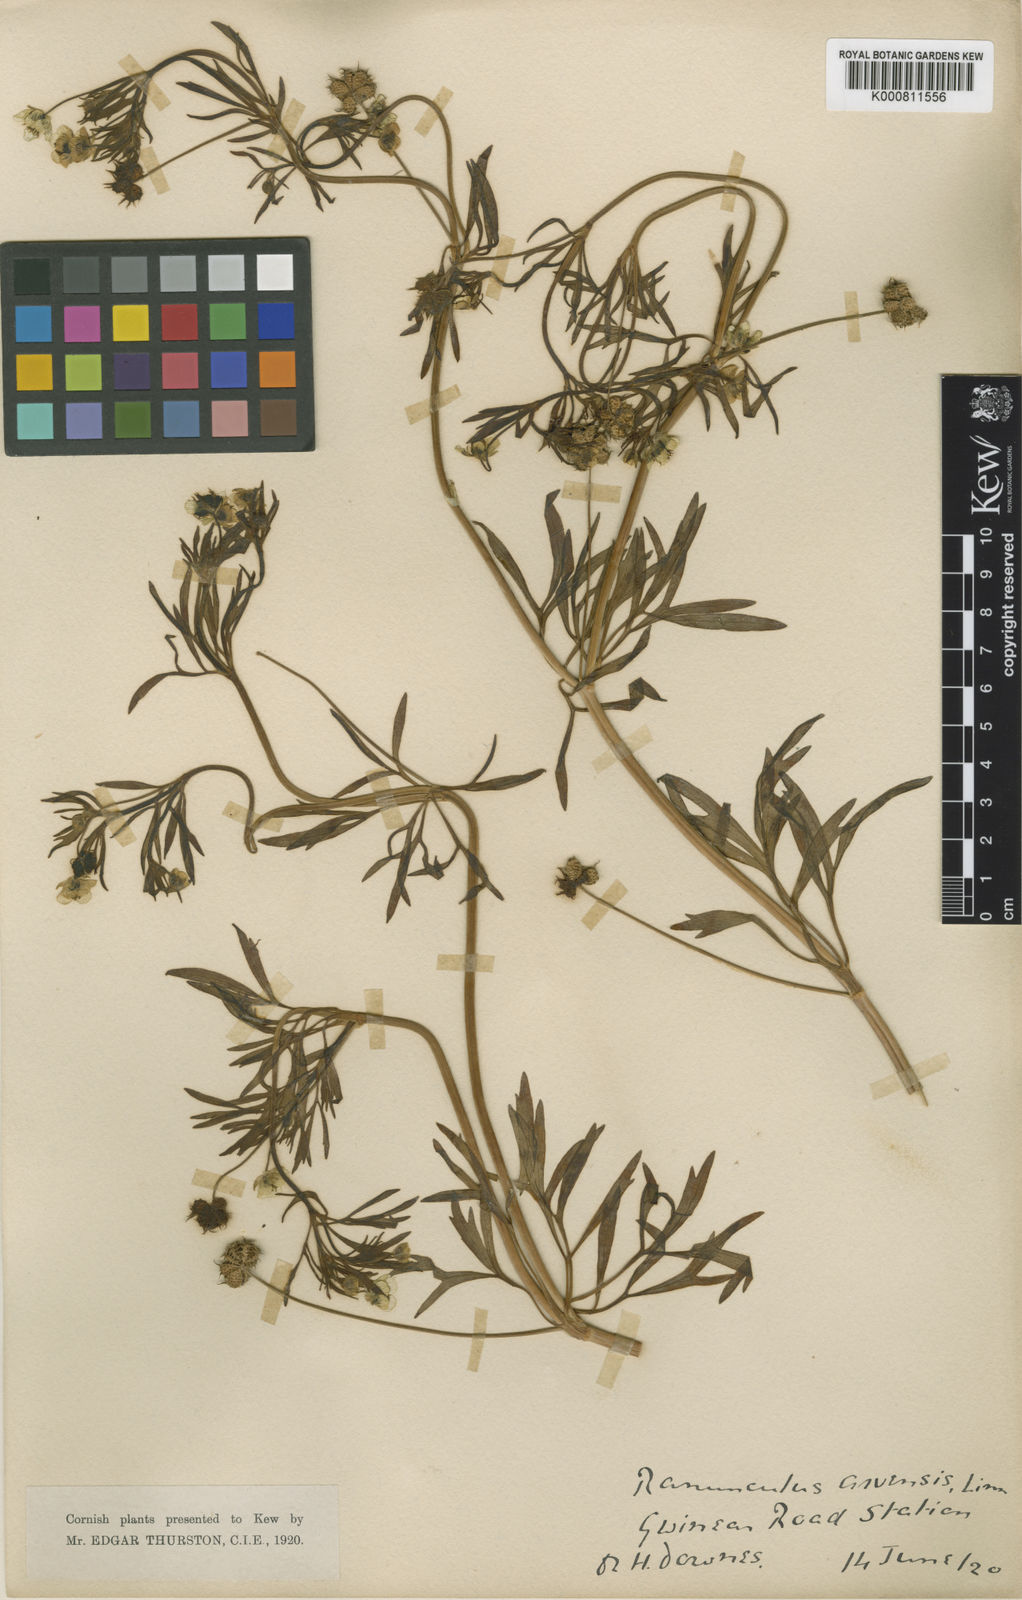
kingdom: Plantae
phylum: Tracheophyta
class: Magnoliopsida
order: Ranunculales
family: Ranunculaceae
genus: Ranunculus
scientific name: Ranunculus arvensis
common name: Corn buttercup
